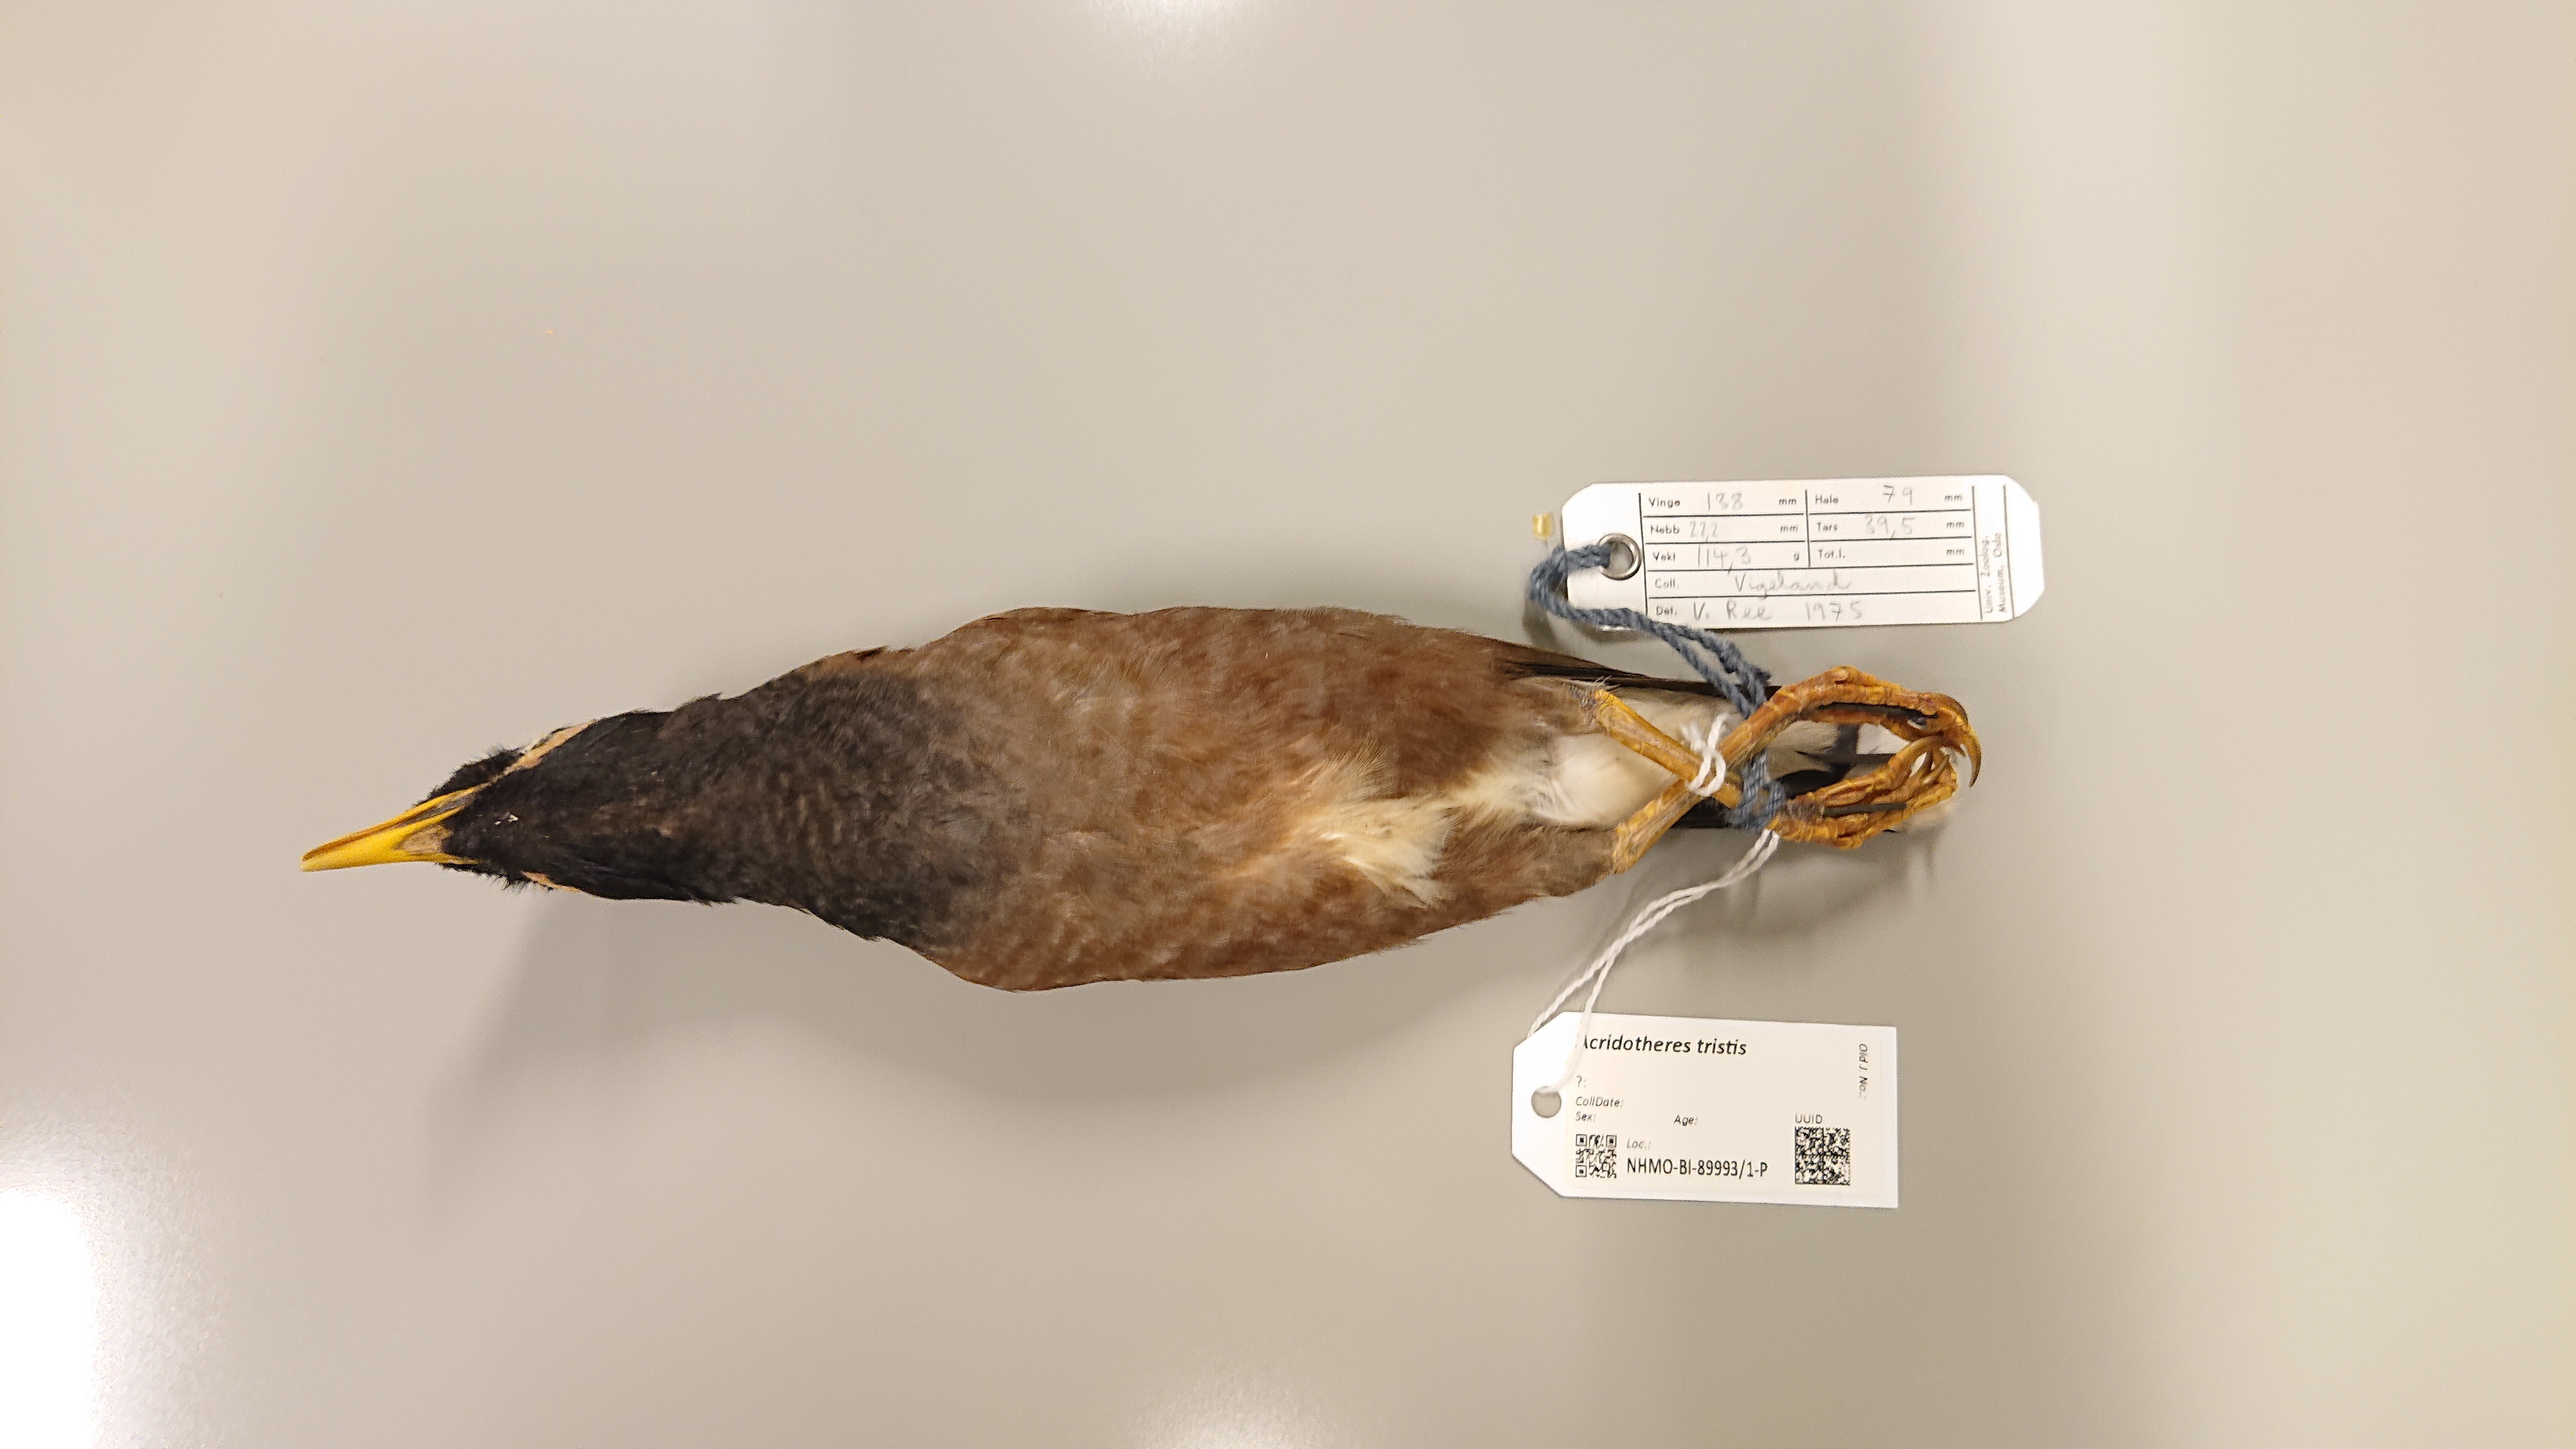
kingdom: Animalia
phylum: Chordata
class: Aves
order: Passeriformes
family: Sturnidae
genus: Acridotheres
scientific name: Acridotheres tristis
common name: Common myna
